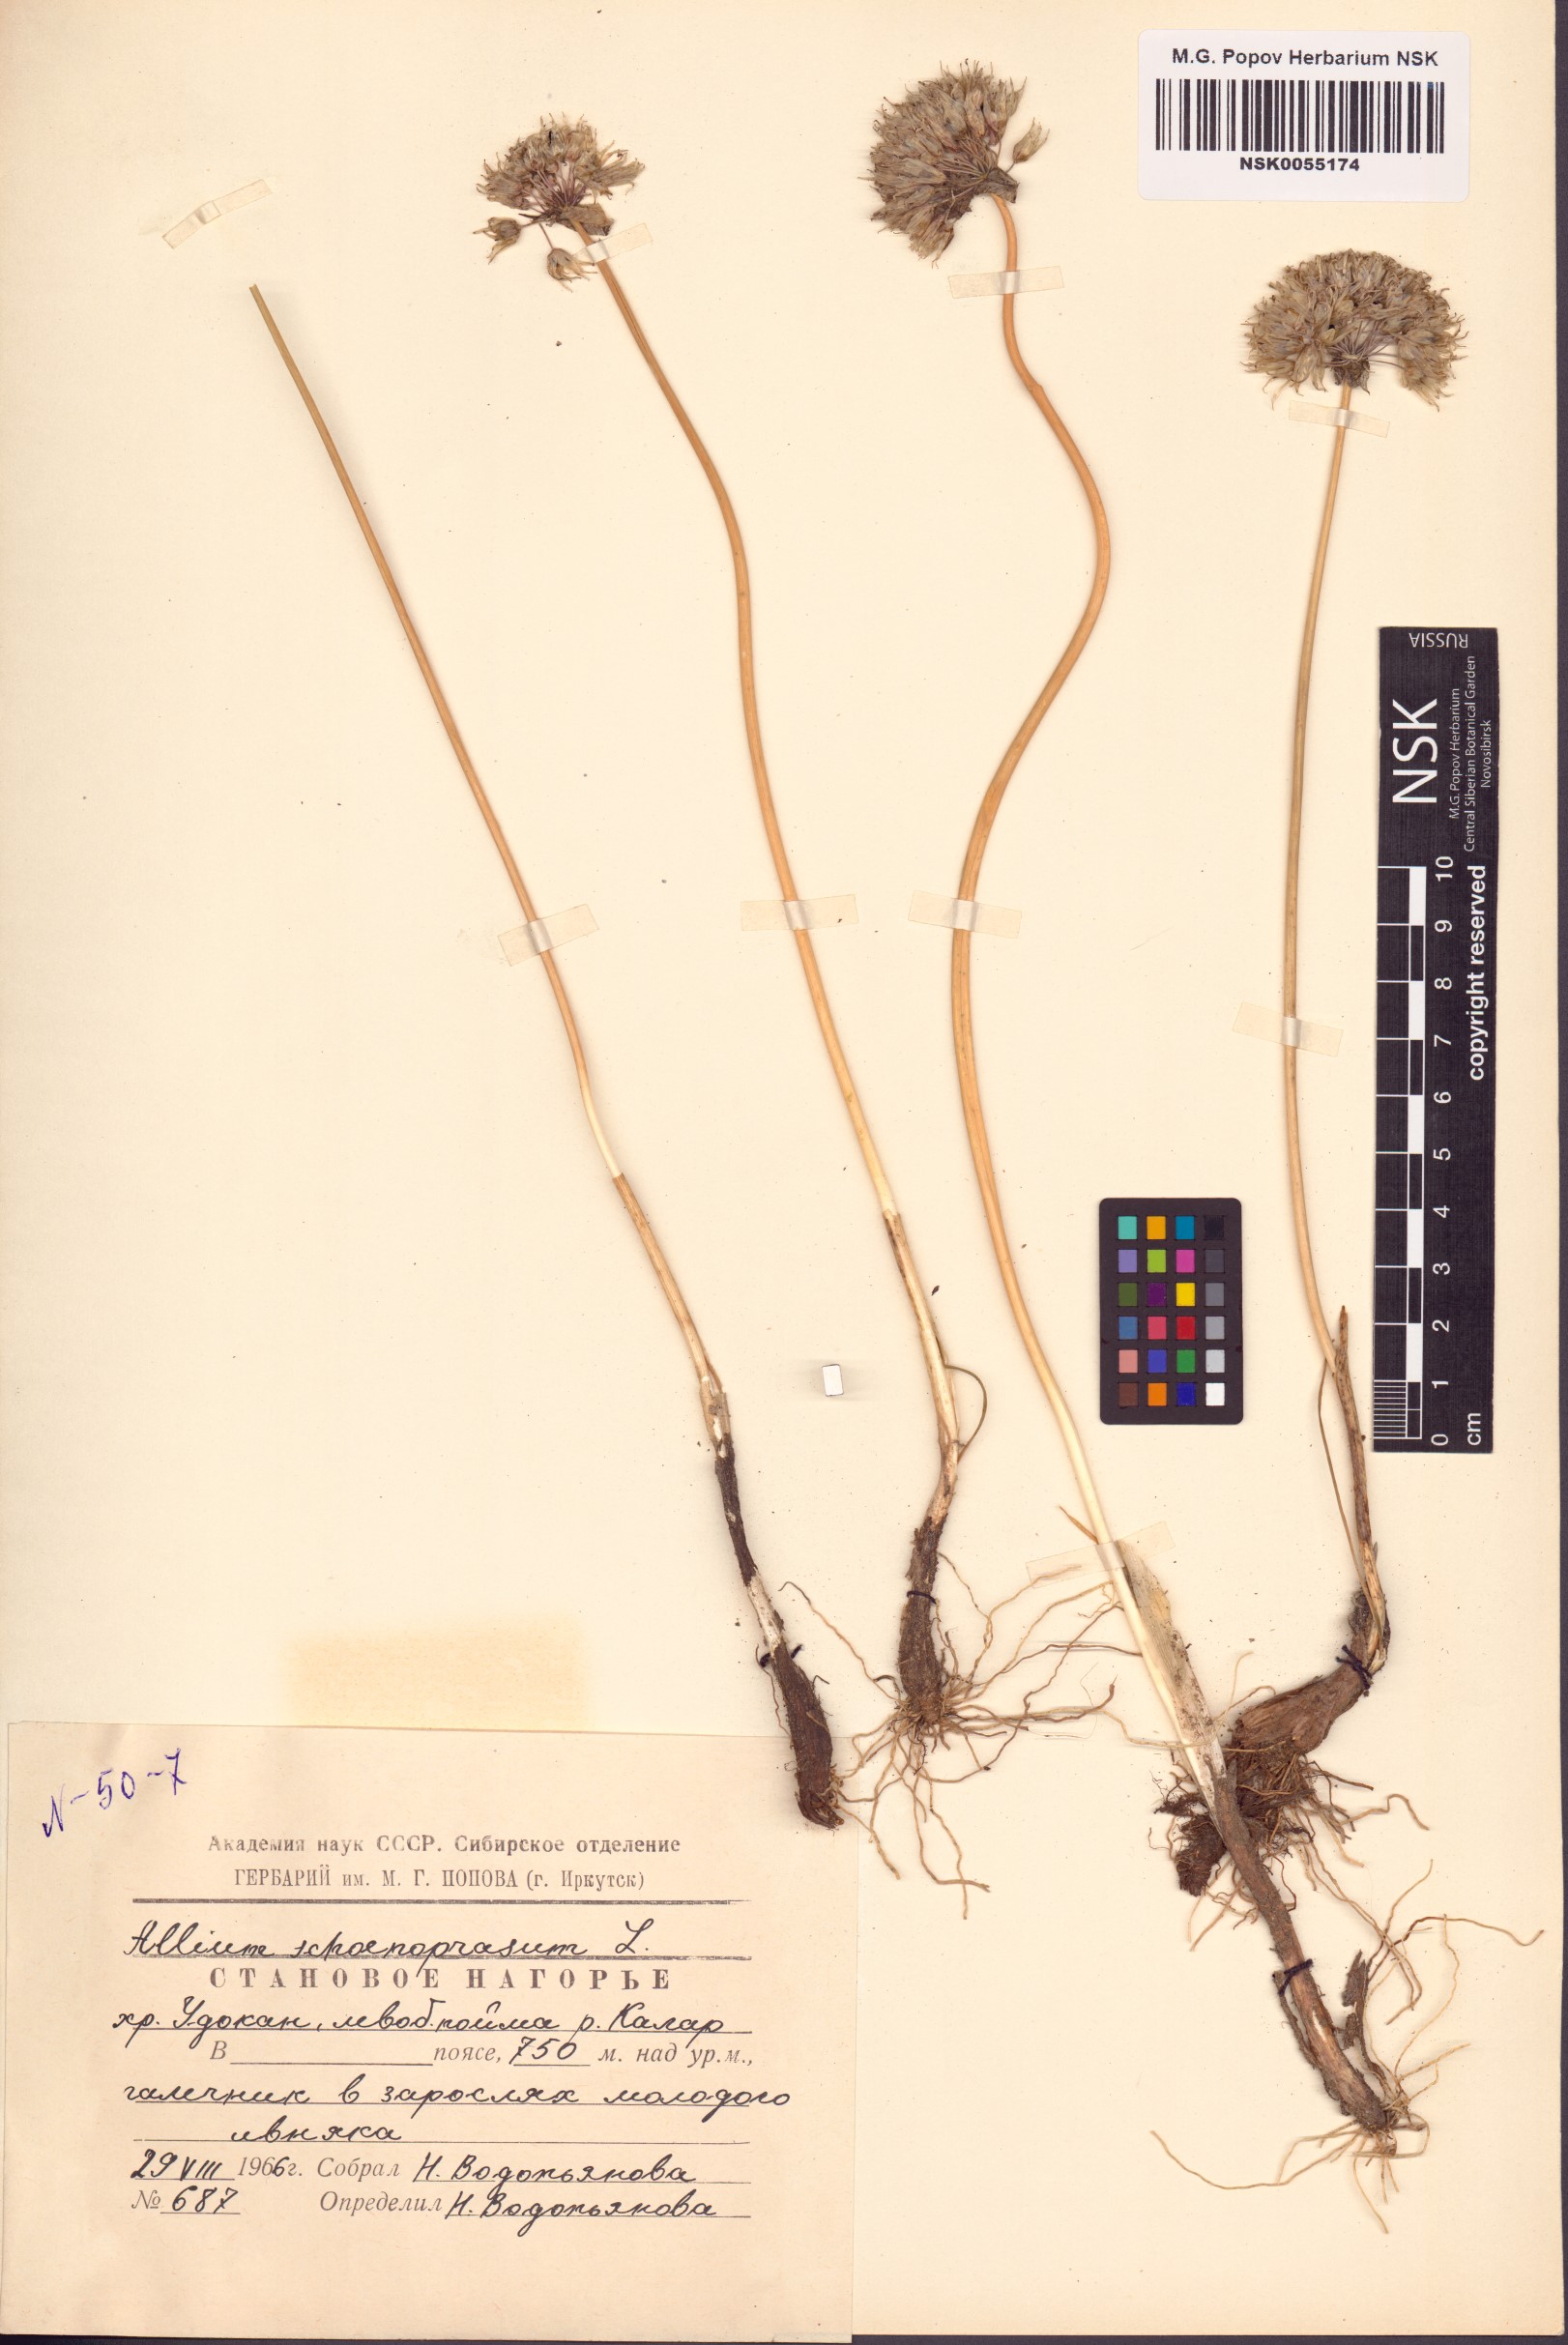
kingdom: Plantae
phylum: Tracheophyta
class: Liliopsida
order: Asparagales
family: Amaryllidaceae
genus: Allium
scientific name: Allium schoenoprasum
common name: Chives
